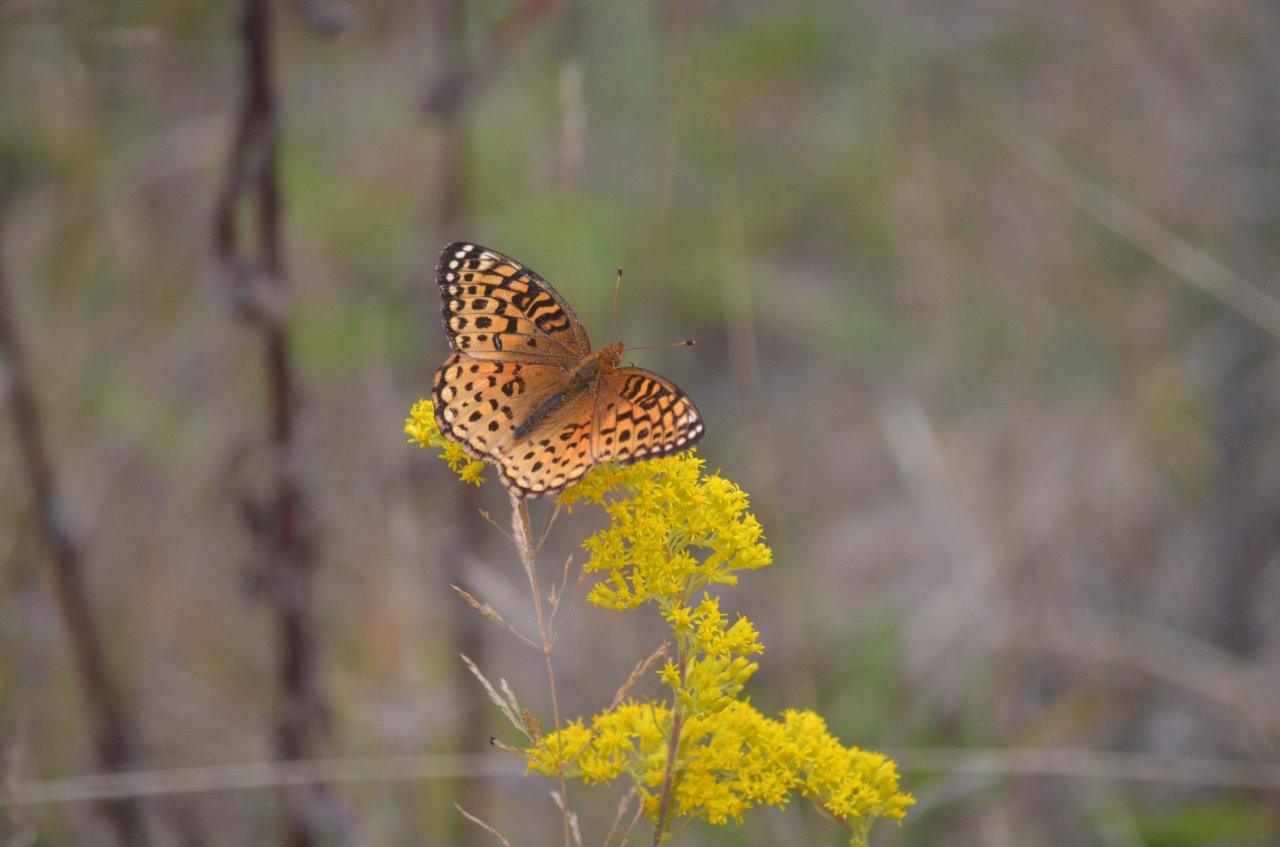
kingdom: Animalia
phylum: Arthropoda
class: Insecta
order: Lepidoptera
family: Nymphalidae
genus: Speyeria
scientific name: Speyeria aphrodite
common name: Aphrodite Fritillary
